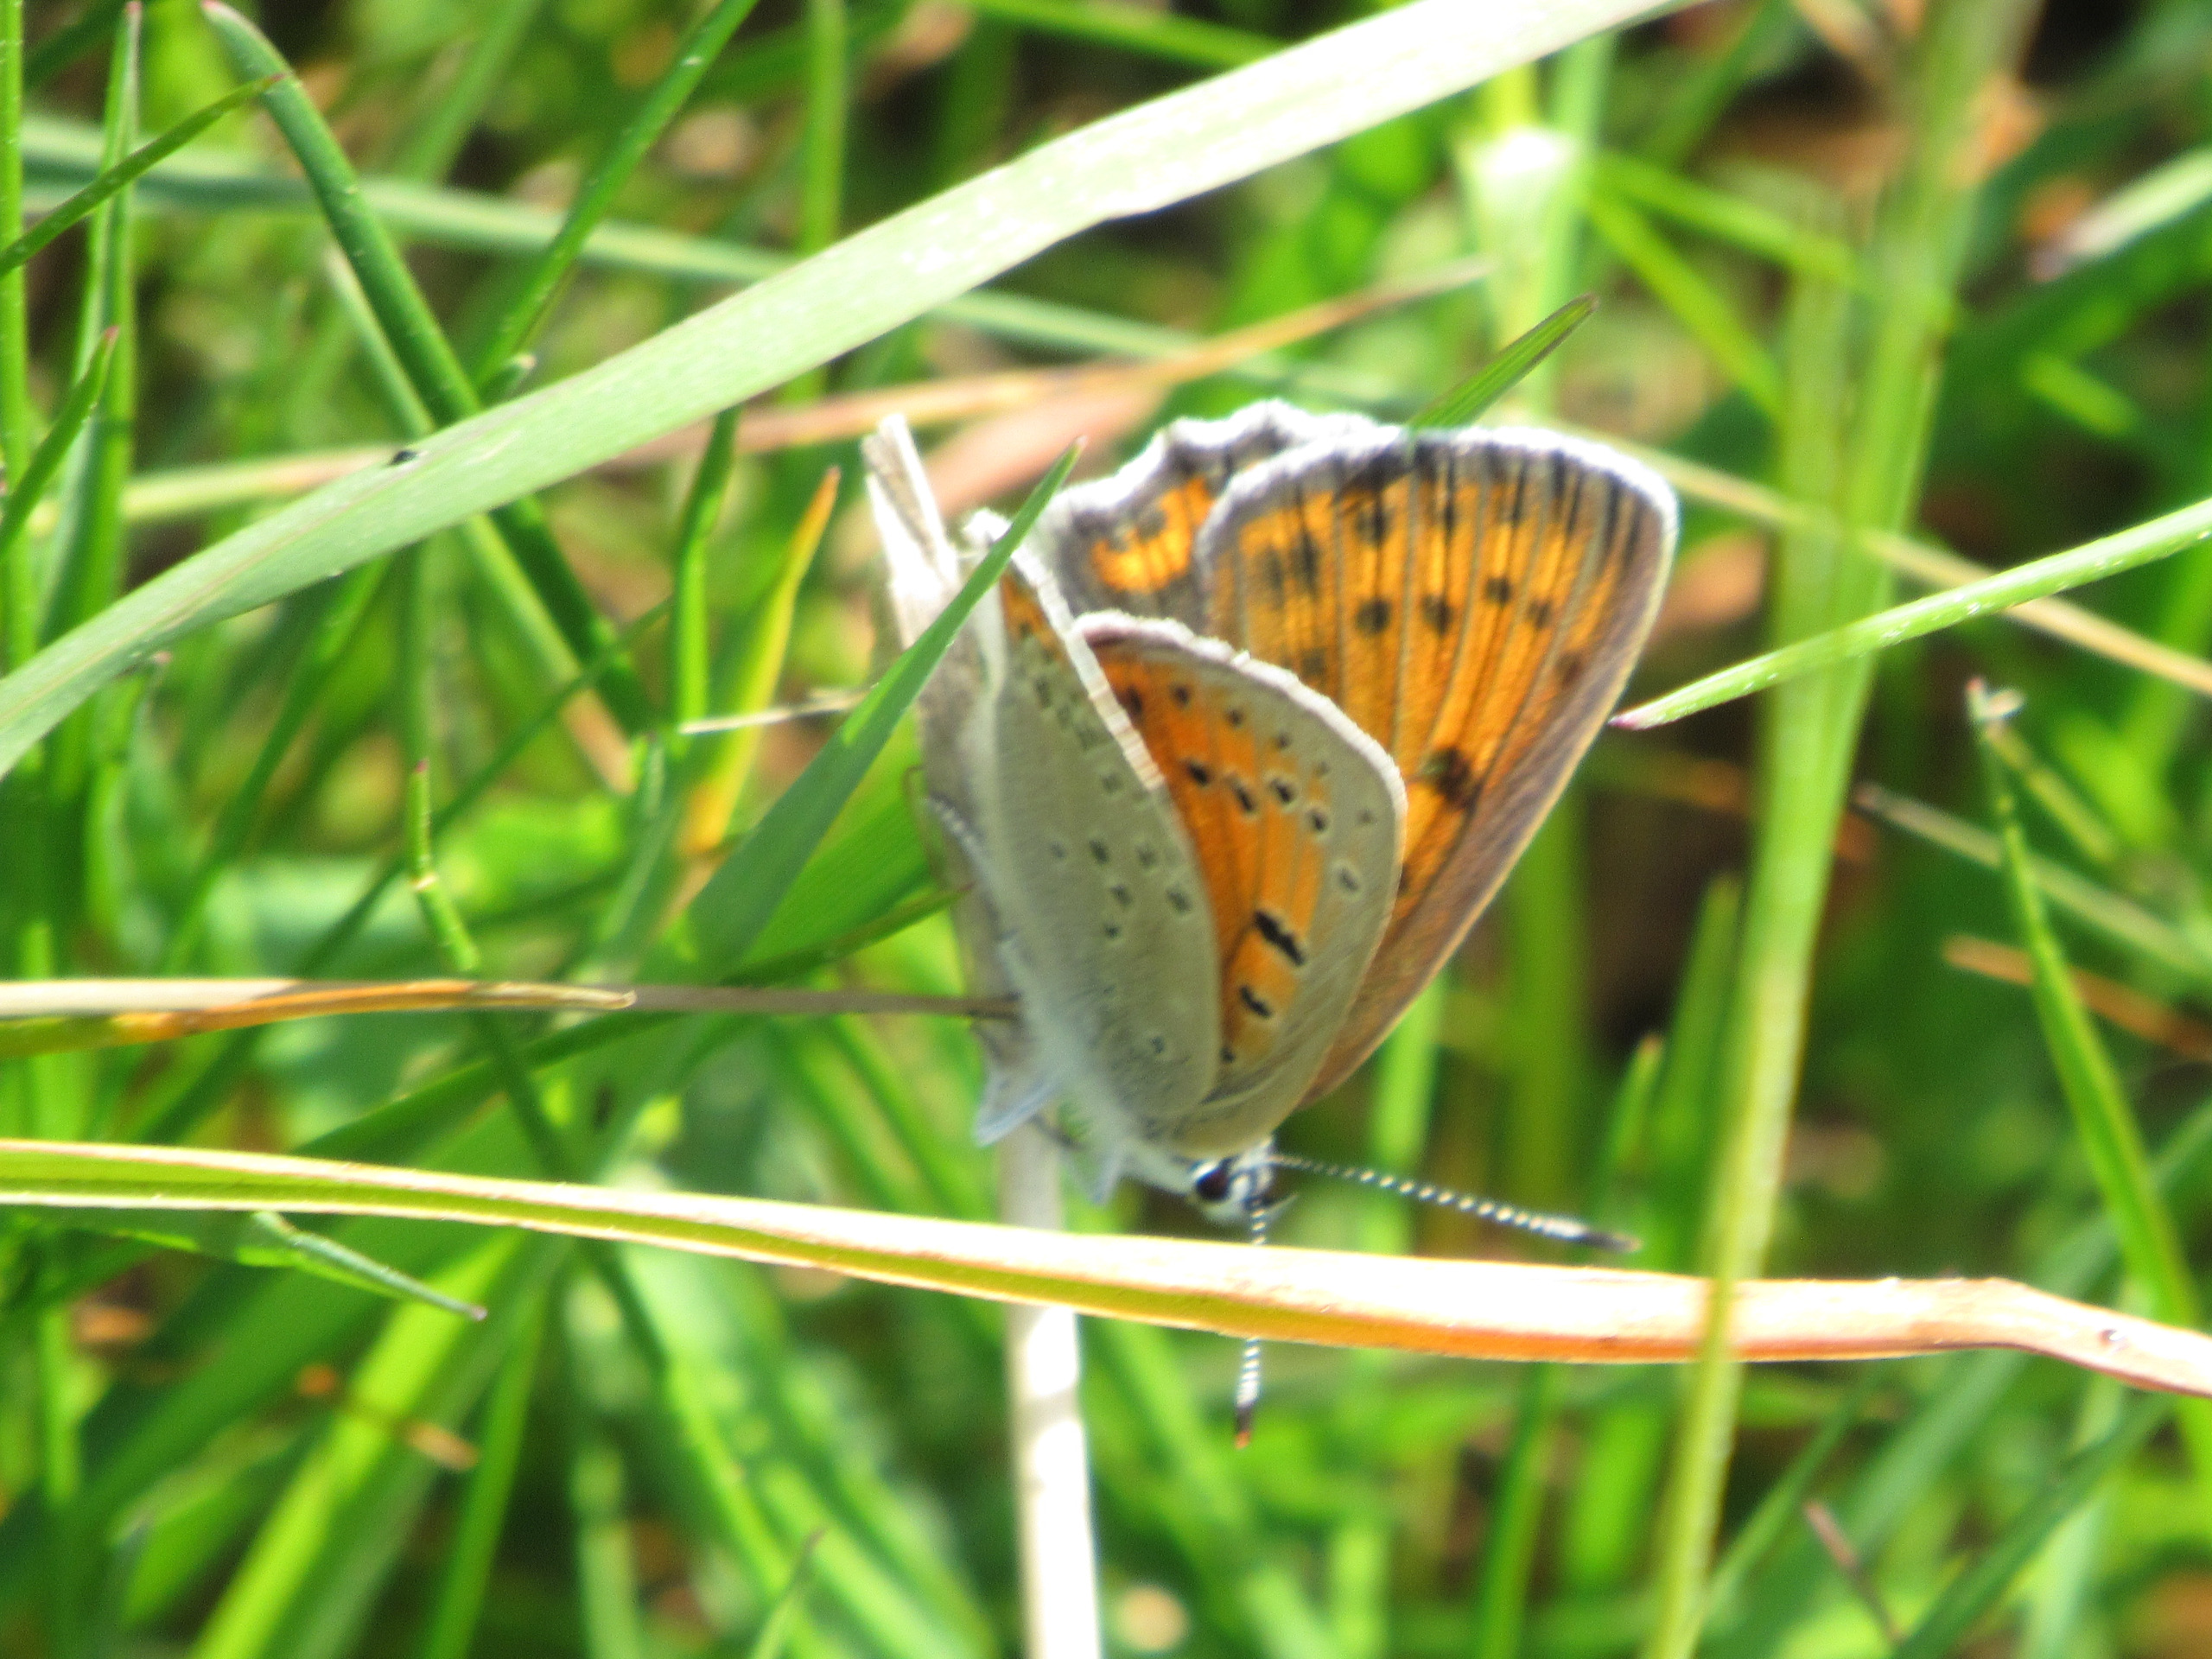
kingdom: Animalia
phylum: Arthropoda
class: Insecta
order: Lepidoptera
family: Lycaenidae
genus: Palaeochrysophanus
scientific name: Palaeochrysophanus hippothoe
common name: Violetrandet ildfugl
